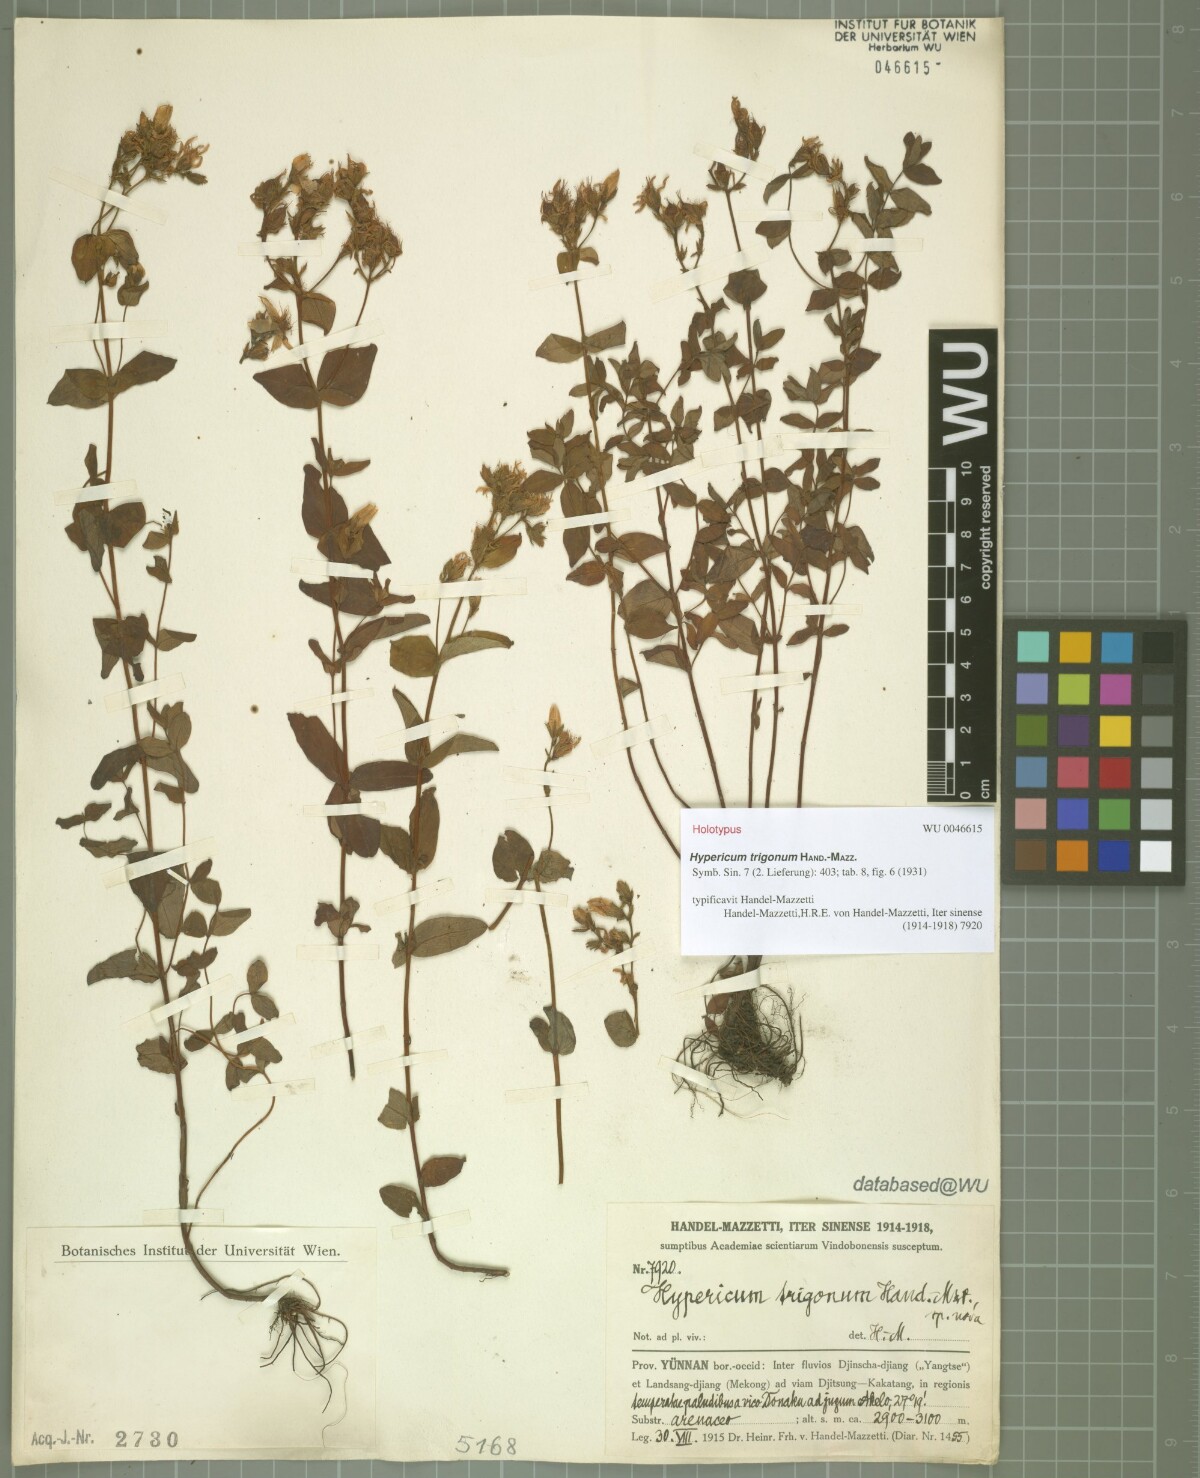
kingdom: Plantae
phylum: Tracheophyta
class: Magnoliopsida
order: Malpighiales
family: Hypericaceae
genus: Hypericum
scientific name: Hypericum trigonum
